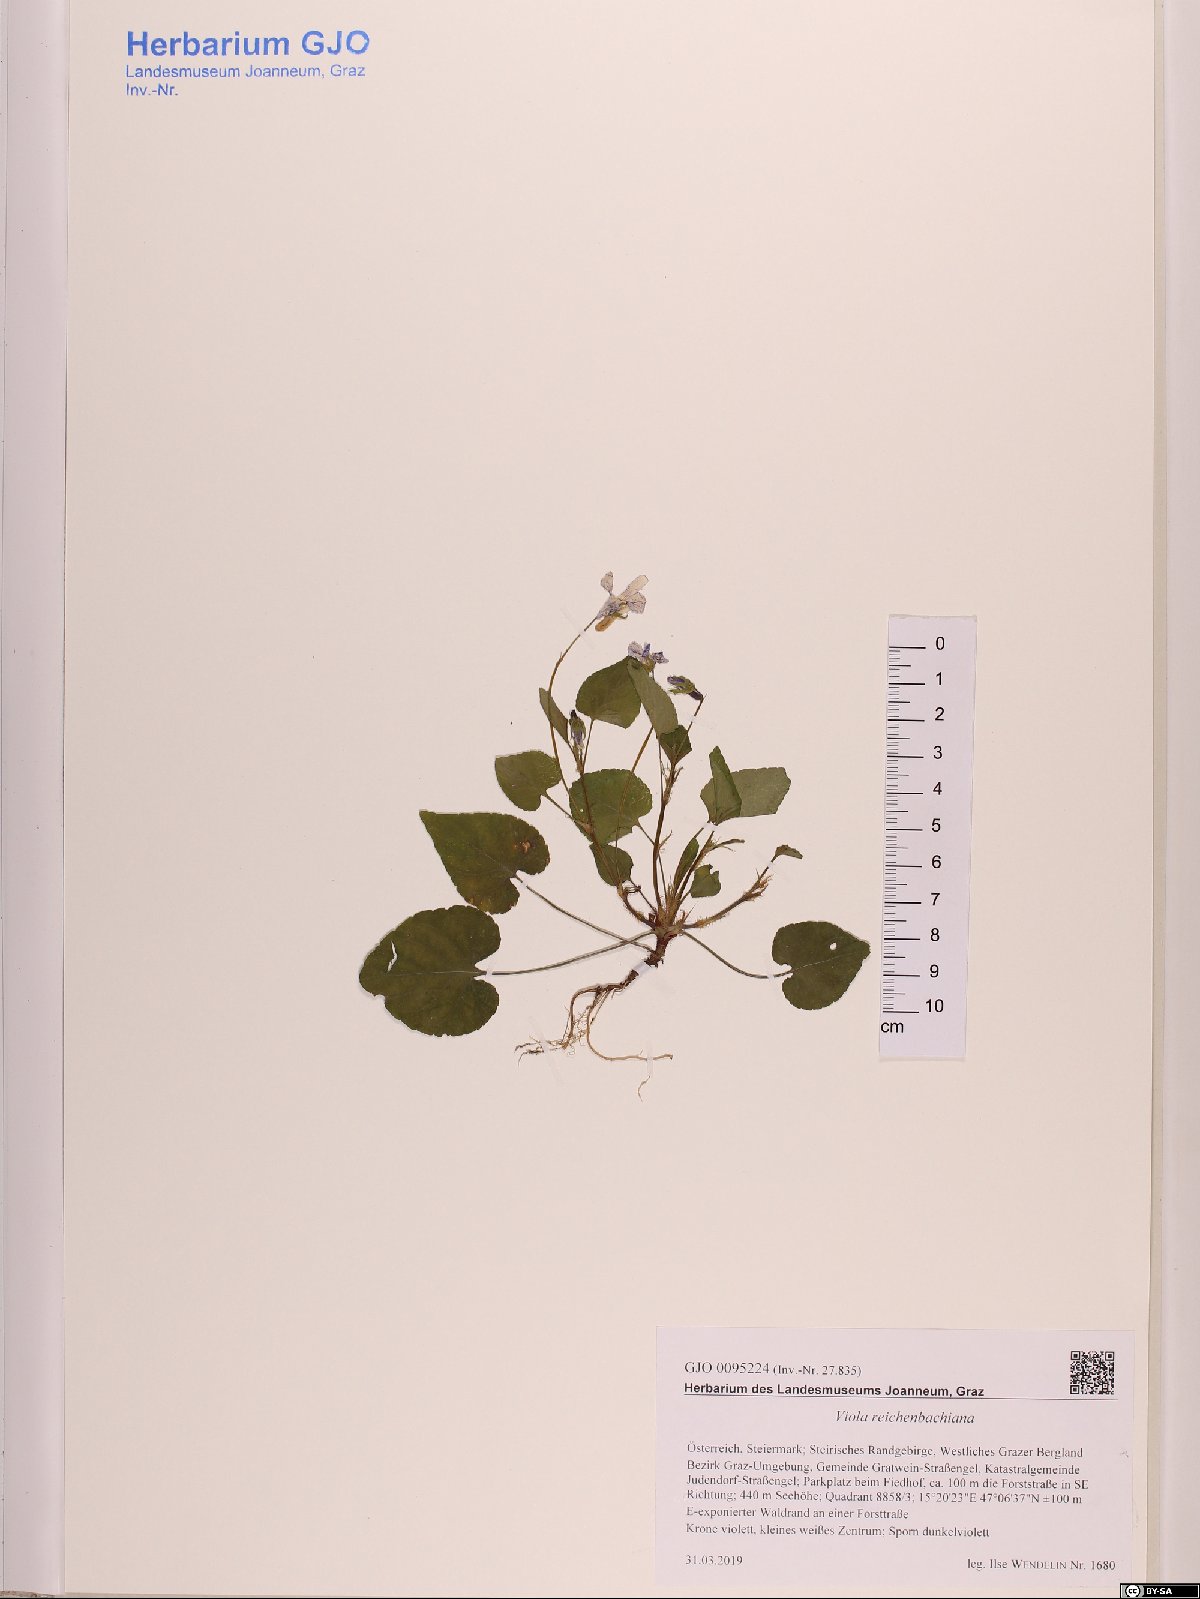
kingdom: Plantae
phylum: Tracheophyta
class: Magnoliopsida
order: Malpighiales
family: Violaceae
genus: Viola
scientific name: Viola reichenbachiana
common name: Early dog-violet
